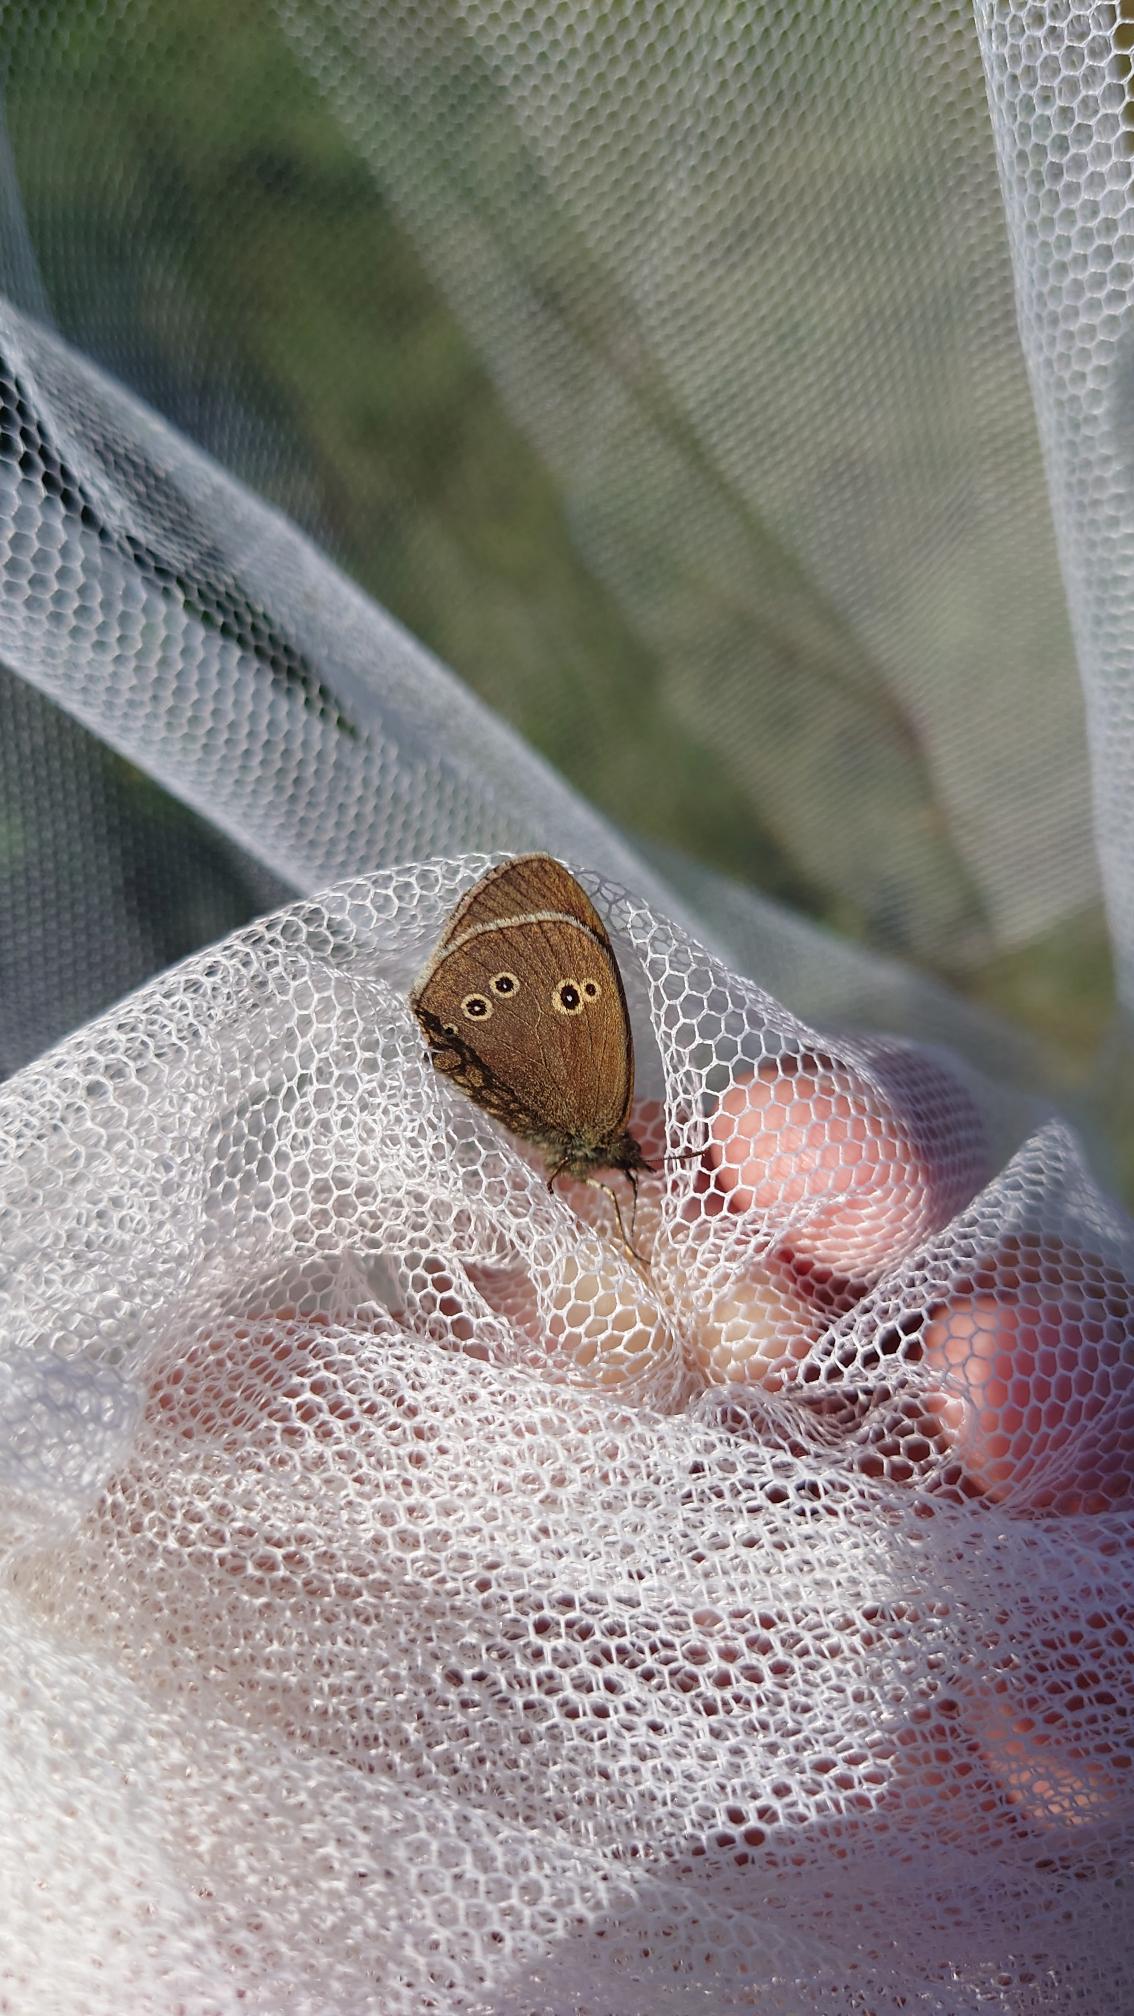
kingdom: Animalia
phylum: Arthropoda
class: Insecta
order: Lepidoptera
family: Nymphalidae
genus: Aphantopus
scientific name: Aphantopus hyperantus
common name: Engrandøje
